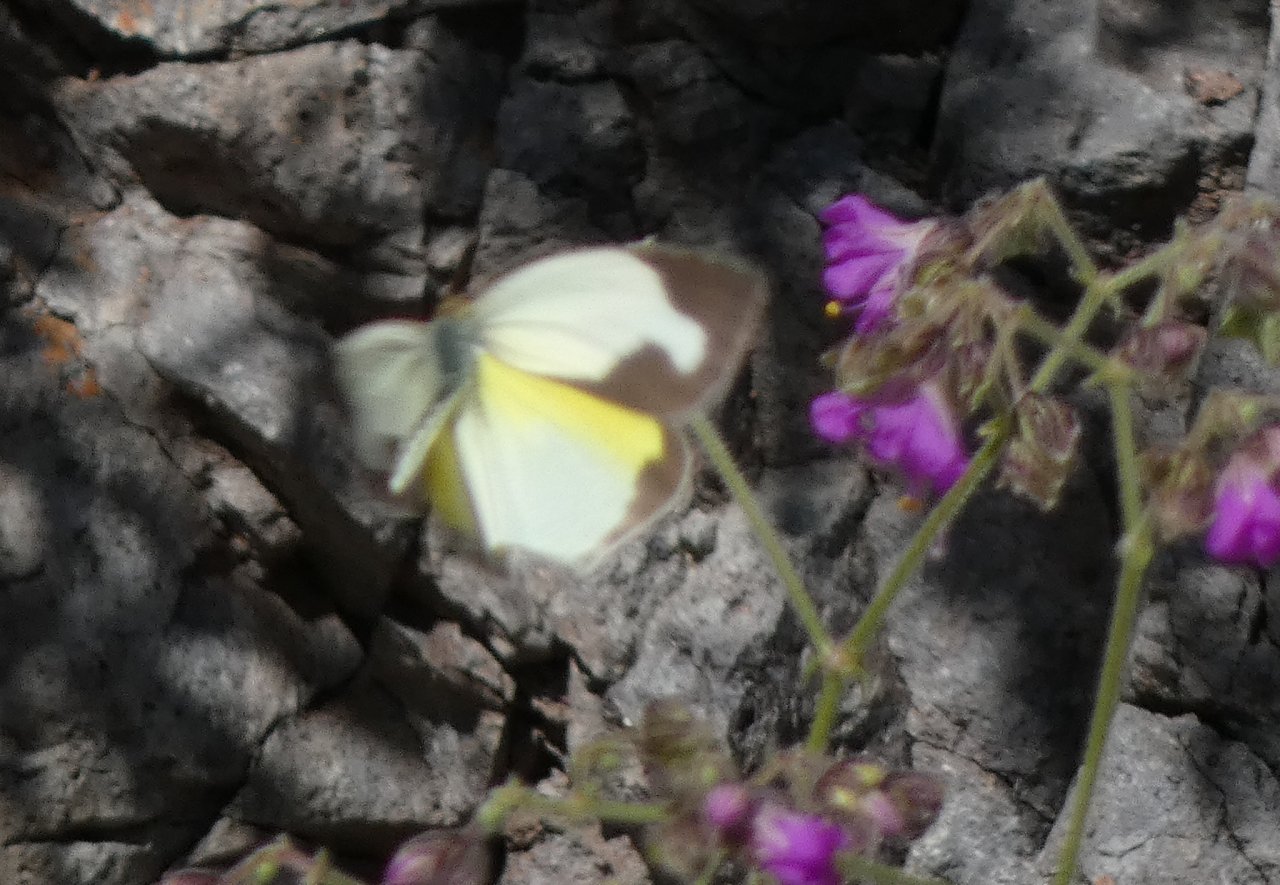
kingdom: Animalia
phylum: Arthropoda
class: Insecta
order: Lepidoptera
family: Pieridae
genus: Eurema
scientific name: Eurema mexicana
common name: Mexican Yellow
